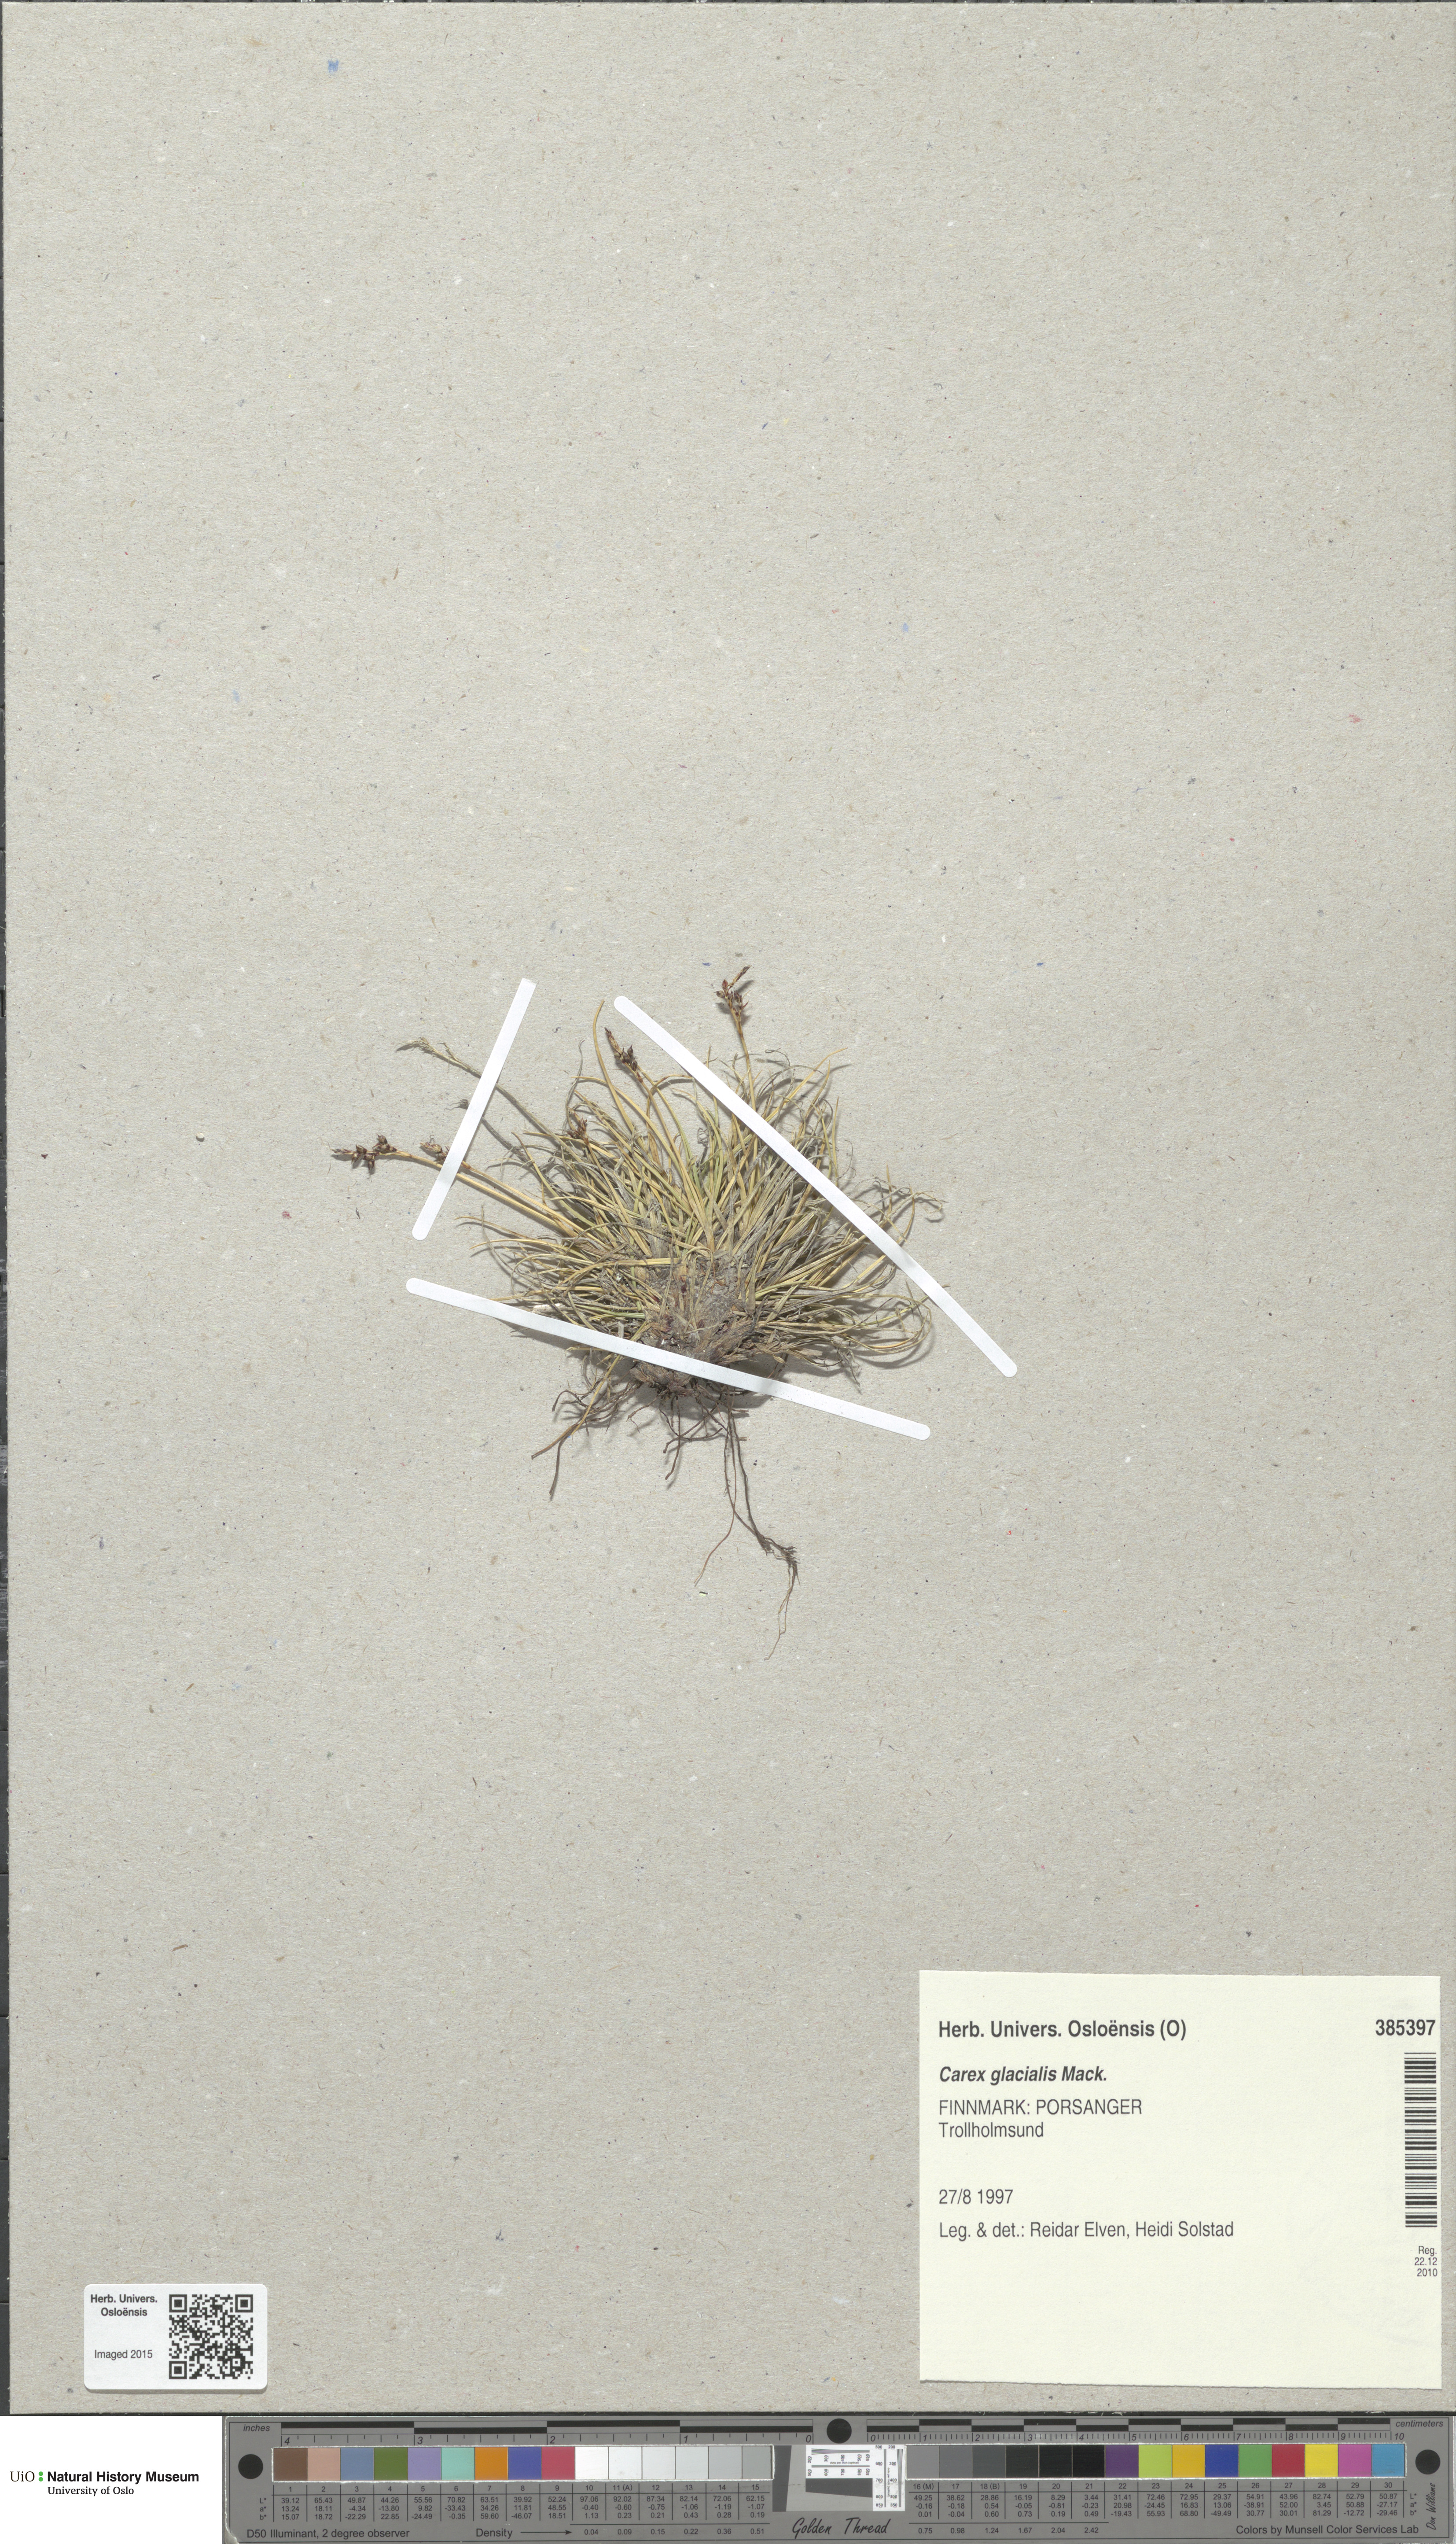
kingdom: Plantae
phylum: Tracheophyta
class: Liliopsida
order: Poales
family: Cyperaceae
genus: Carex
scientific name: Carex glacialis
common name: Newfoundland sedge
